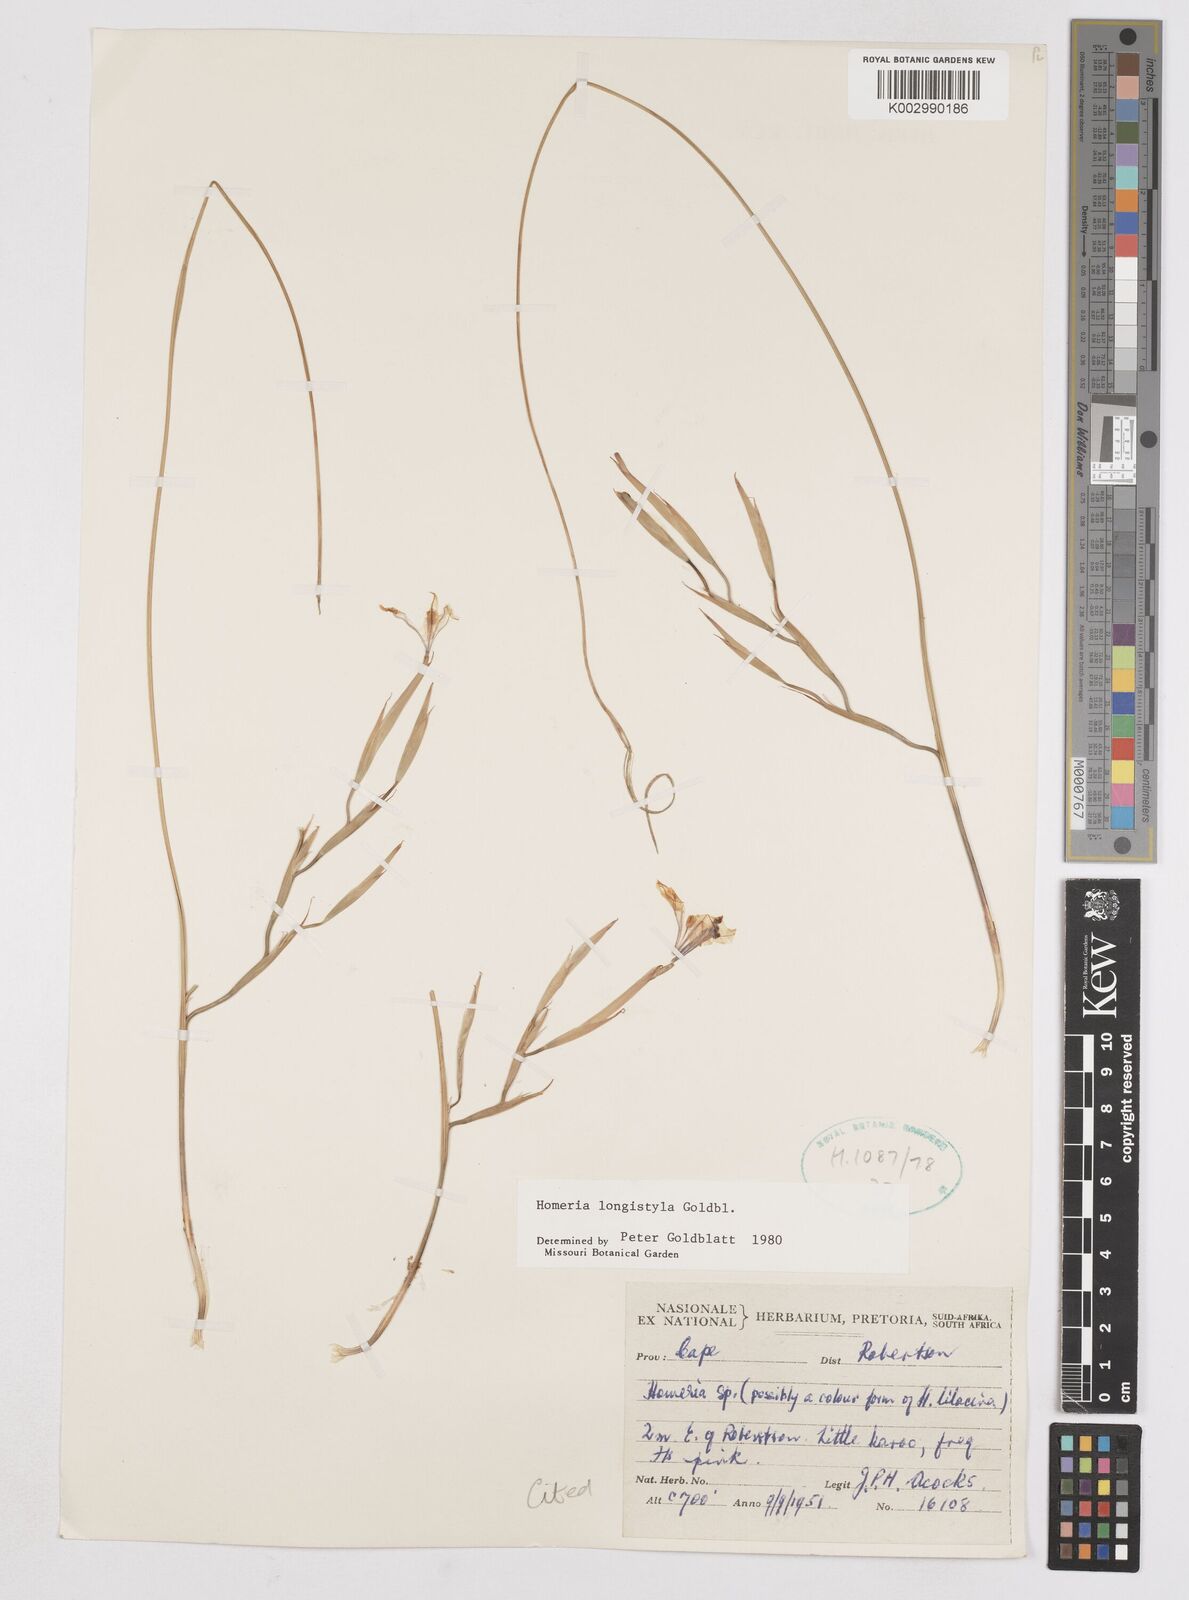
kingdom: Plantae
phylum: Tracheophyta
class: Liliopsida
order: Asparagales
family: Iridaceae
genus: Moraea
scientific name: Moraea longistyla
